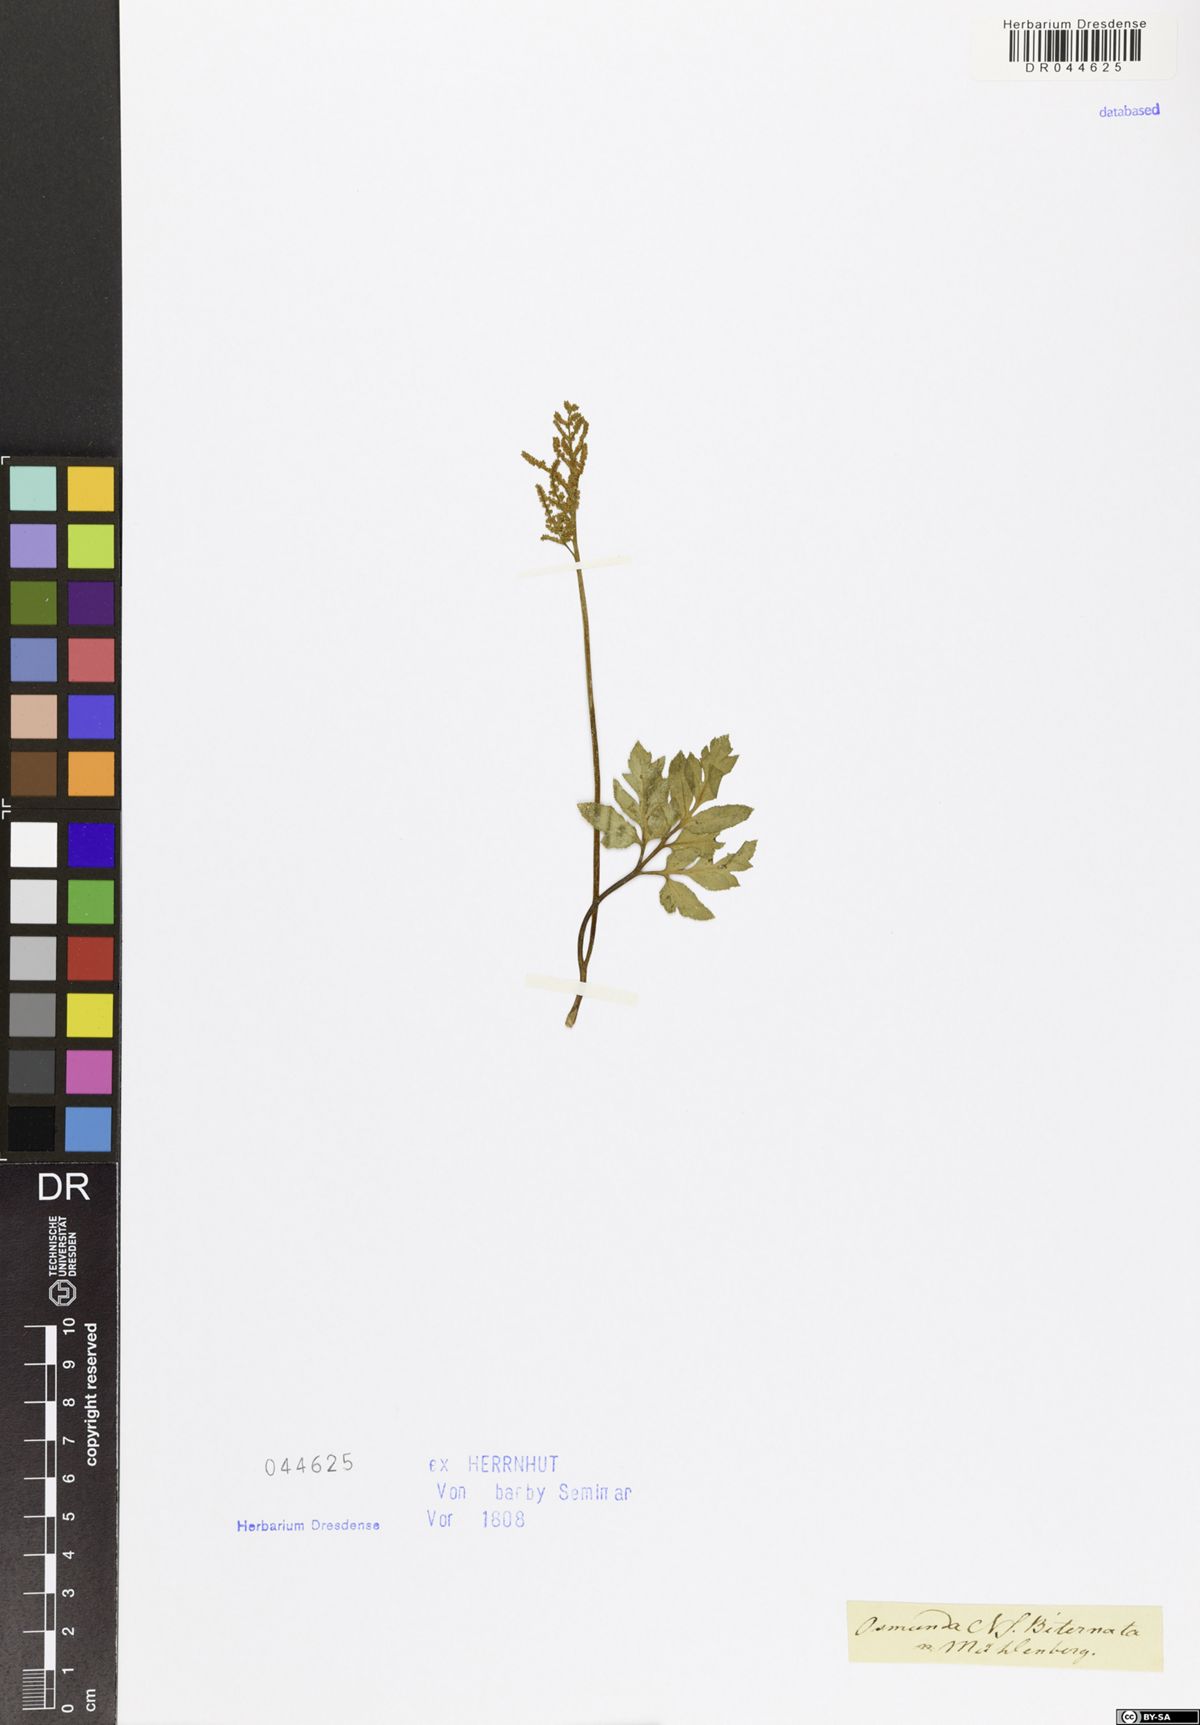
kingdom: Plantae
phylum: Tracheophyta
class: Polypodiopsida
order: Ophioglossales
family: Ophioglossaceae
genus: Sceptridium
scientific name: Sceptridium biternatum
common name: Sparse-lobed grapefern
